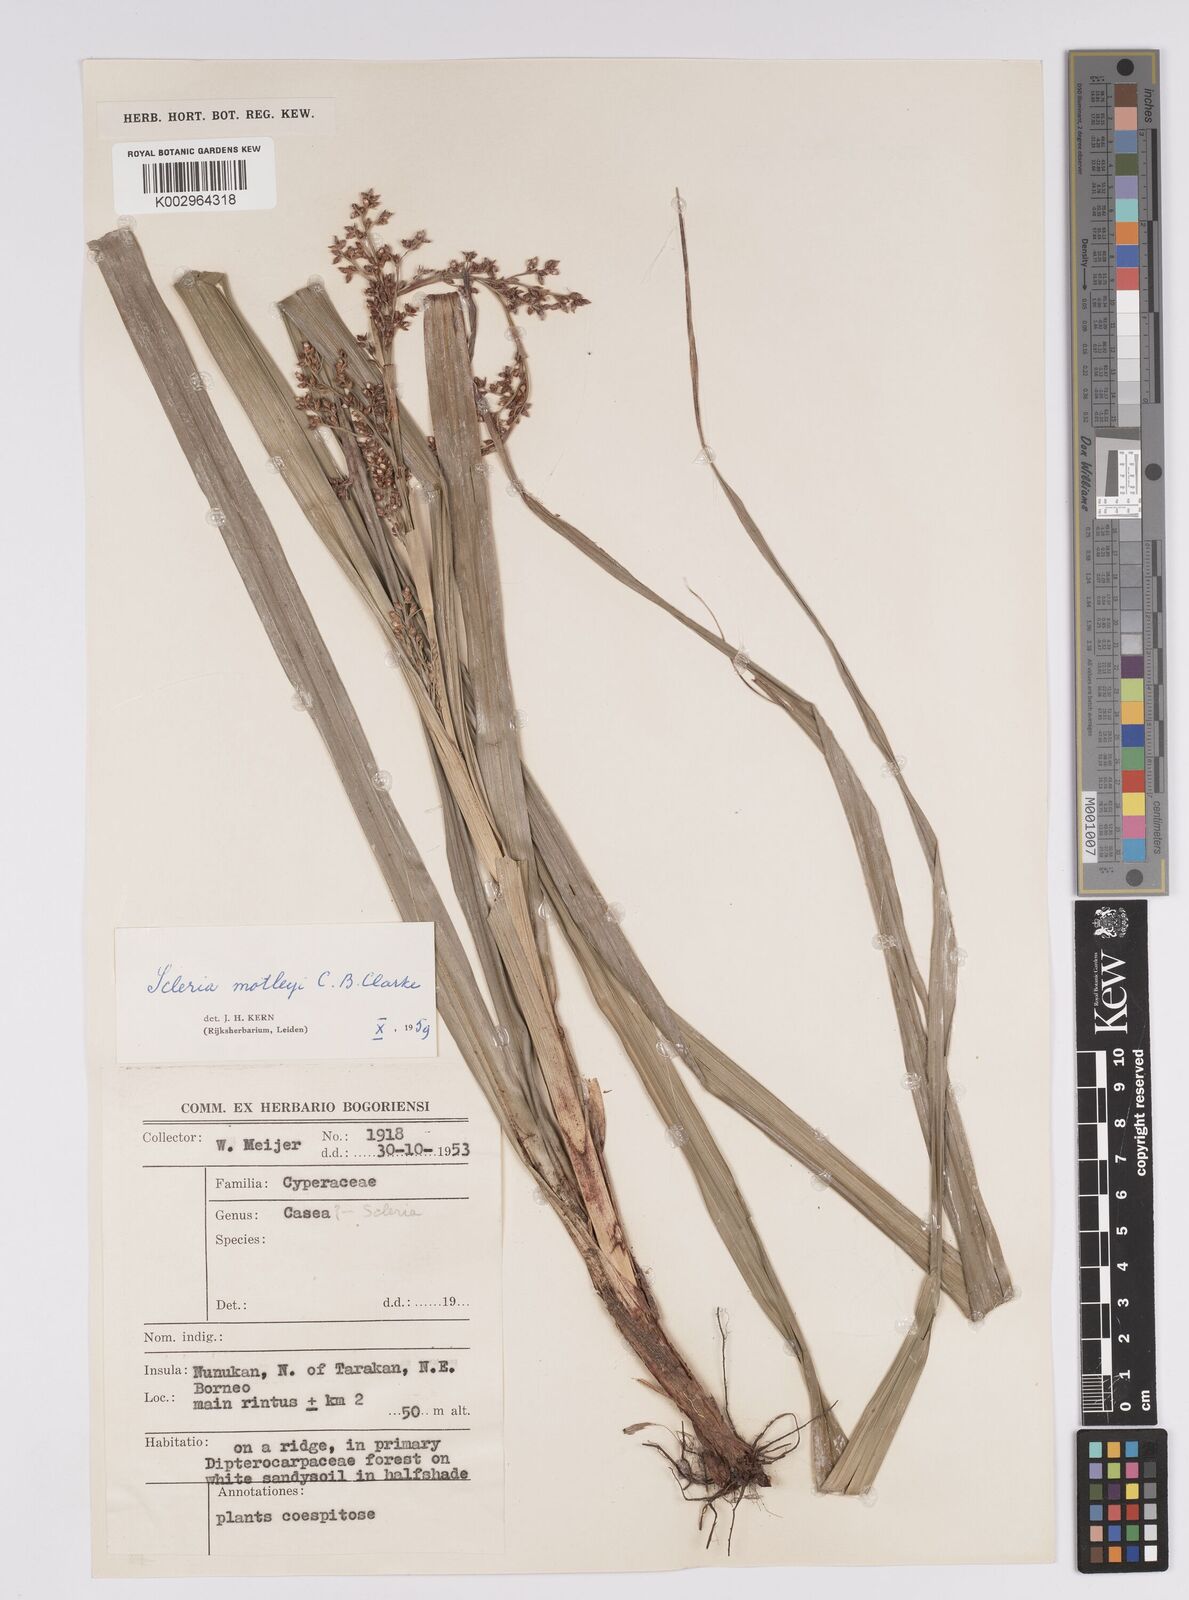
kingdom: Plantae
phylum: Tracheophyta
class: Liliopsida
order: Poales
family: Cyperaceae
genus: Scleria
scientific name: Scleria motleyi
